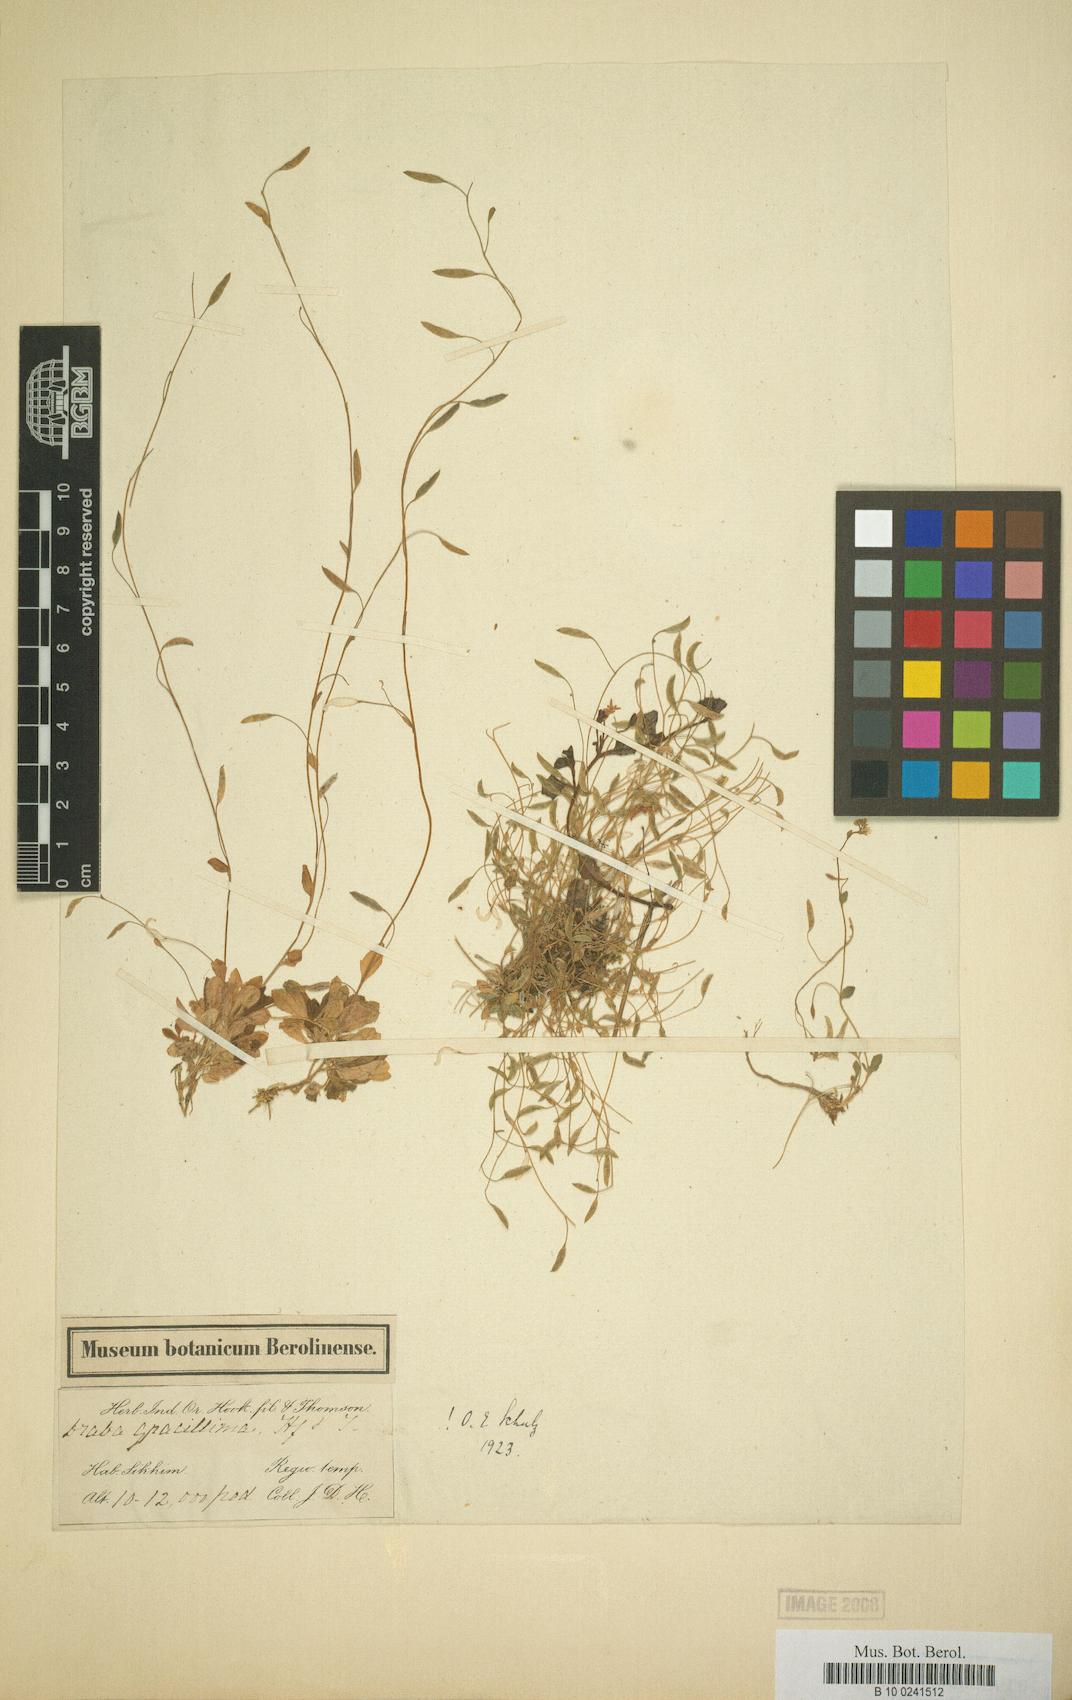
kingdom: Plantae
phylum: Tracheophyta
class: Magnoliopsida
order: Brassicales
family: Brassicaceae
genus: Draba
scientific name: Draba gracillima
